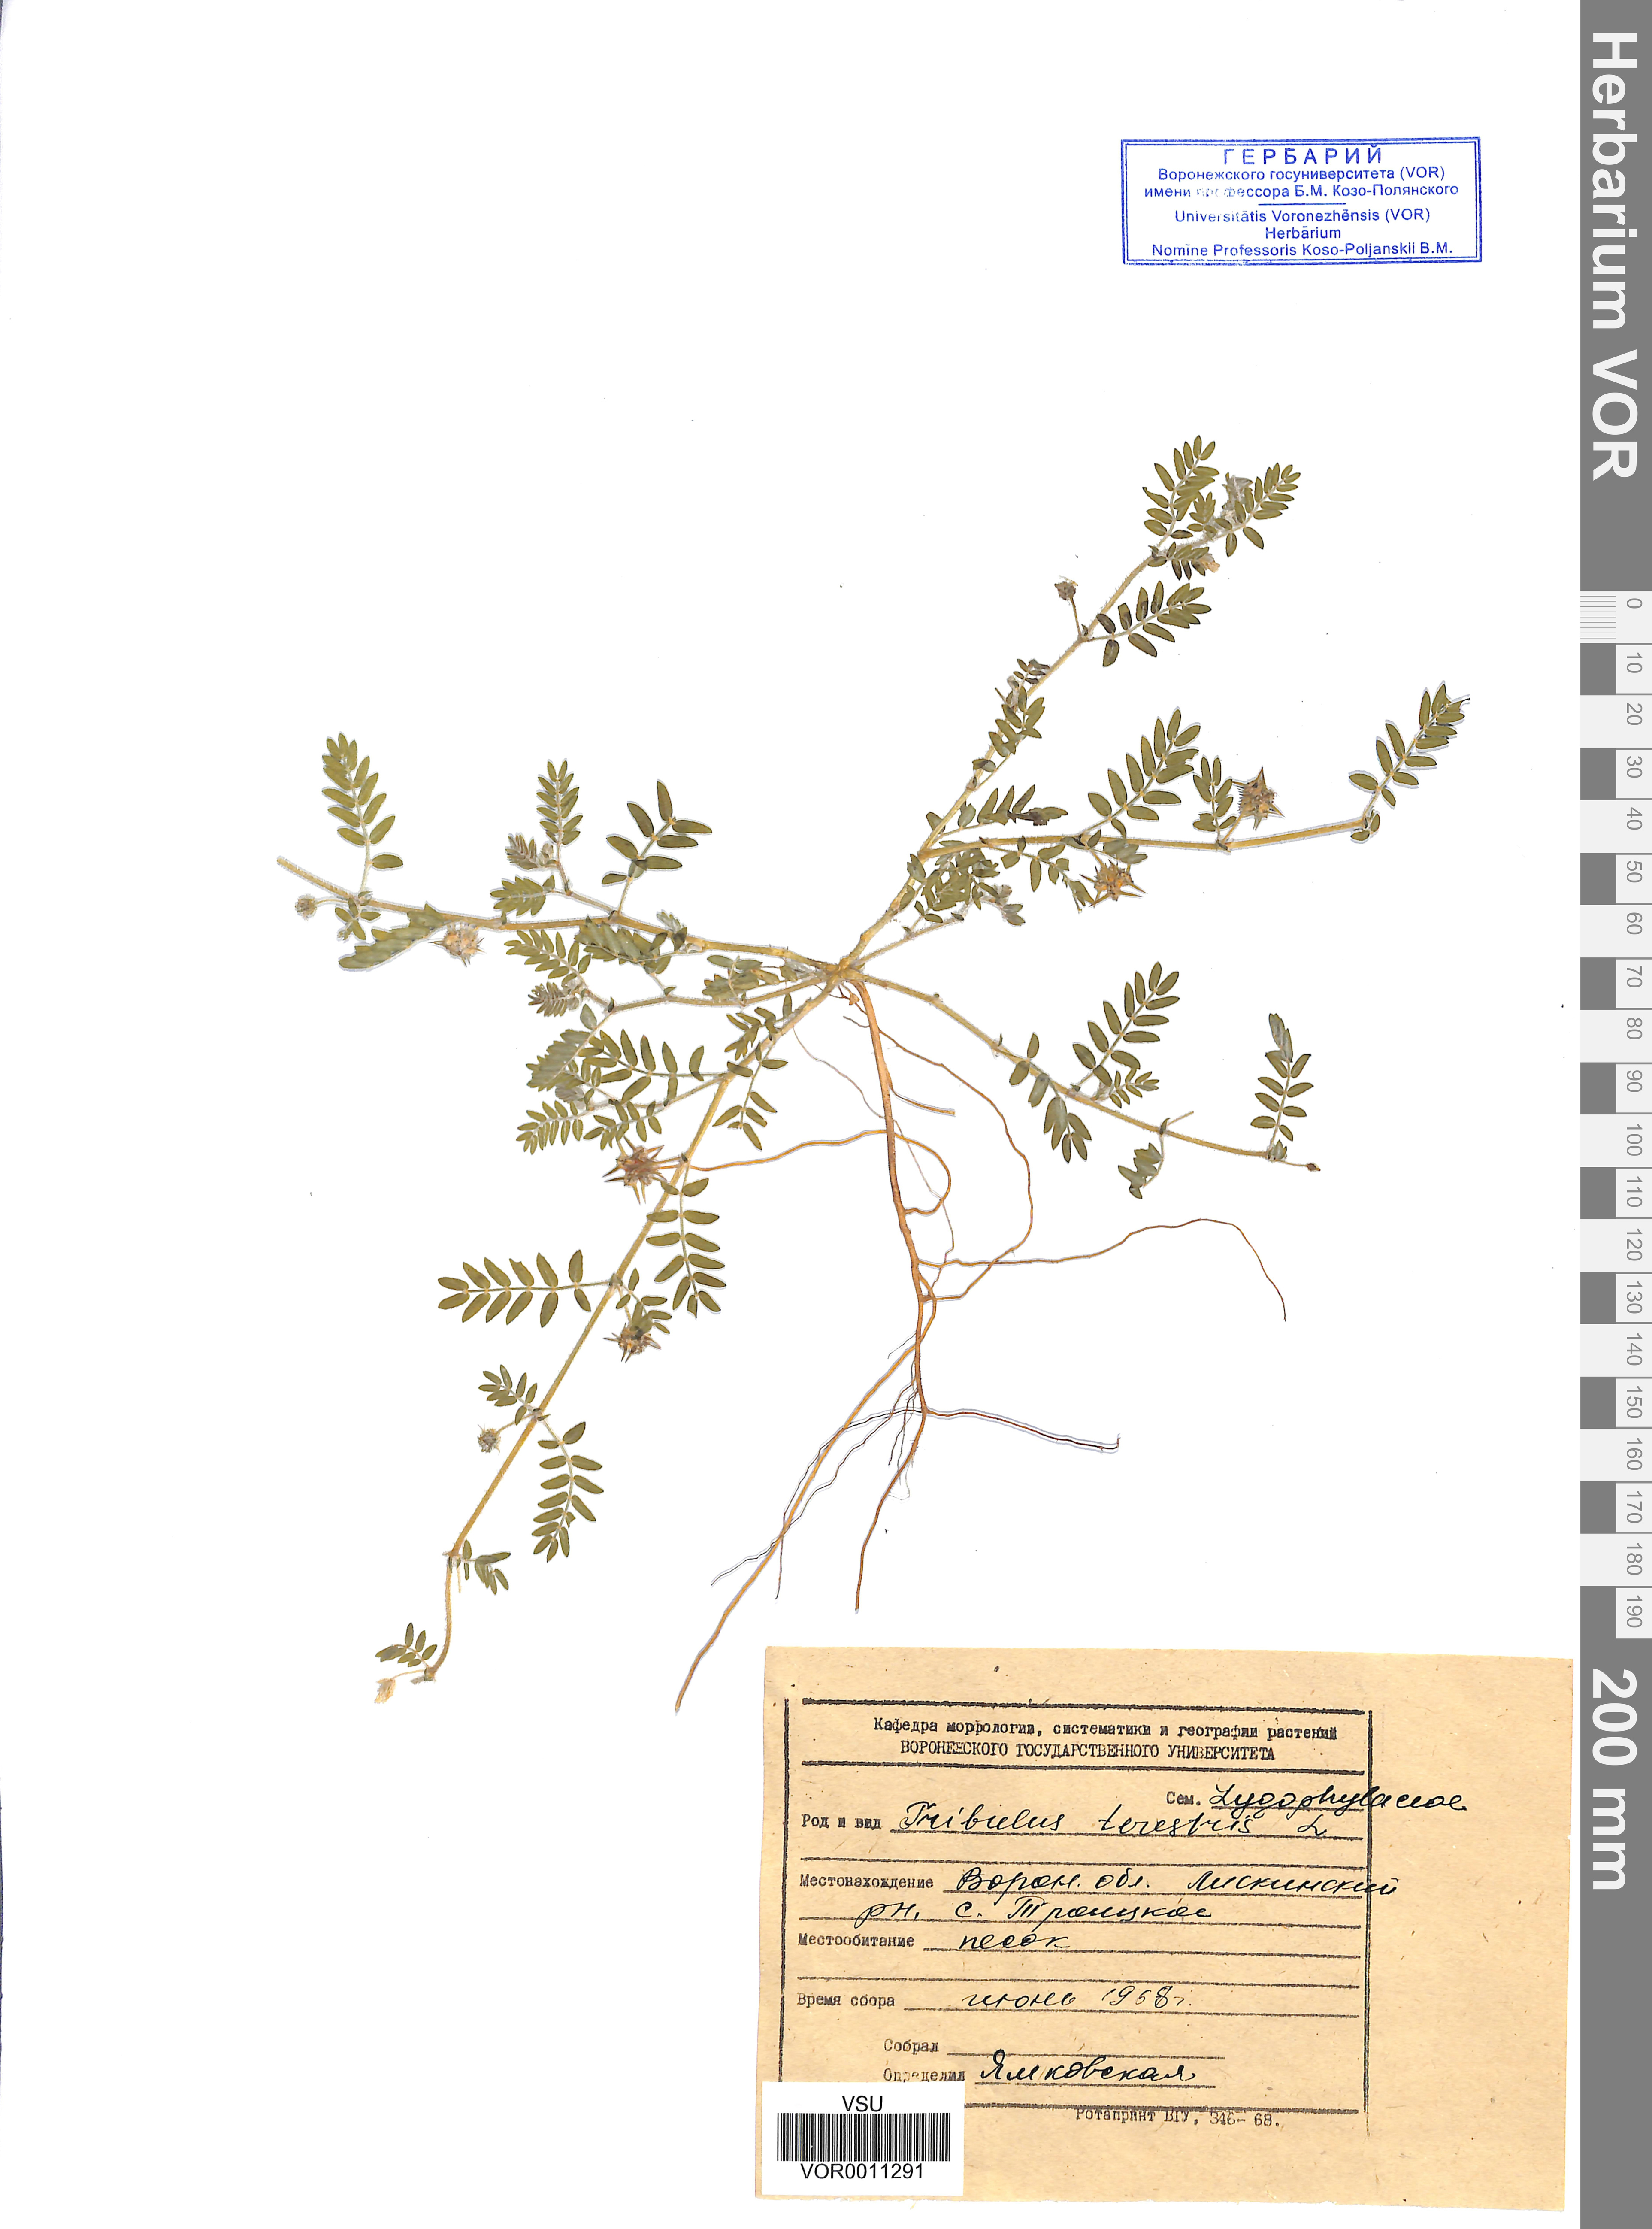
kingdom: Plantae
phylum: Tracheophyta
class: Magnoliopsida
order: Zygophyllales
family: Zygophyllaceae
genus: Tribulus
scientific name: Tribulus terrestris
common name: Puncturevine
